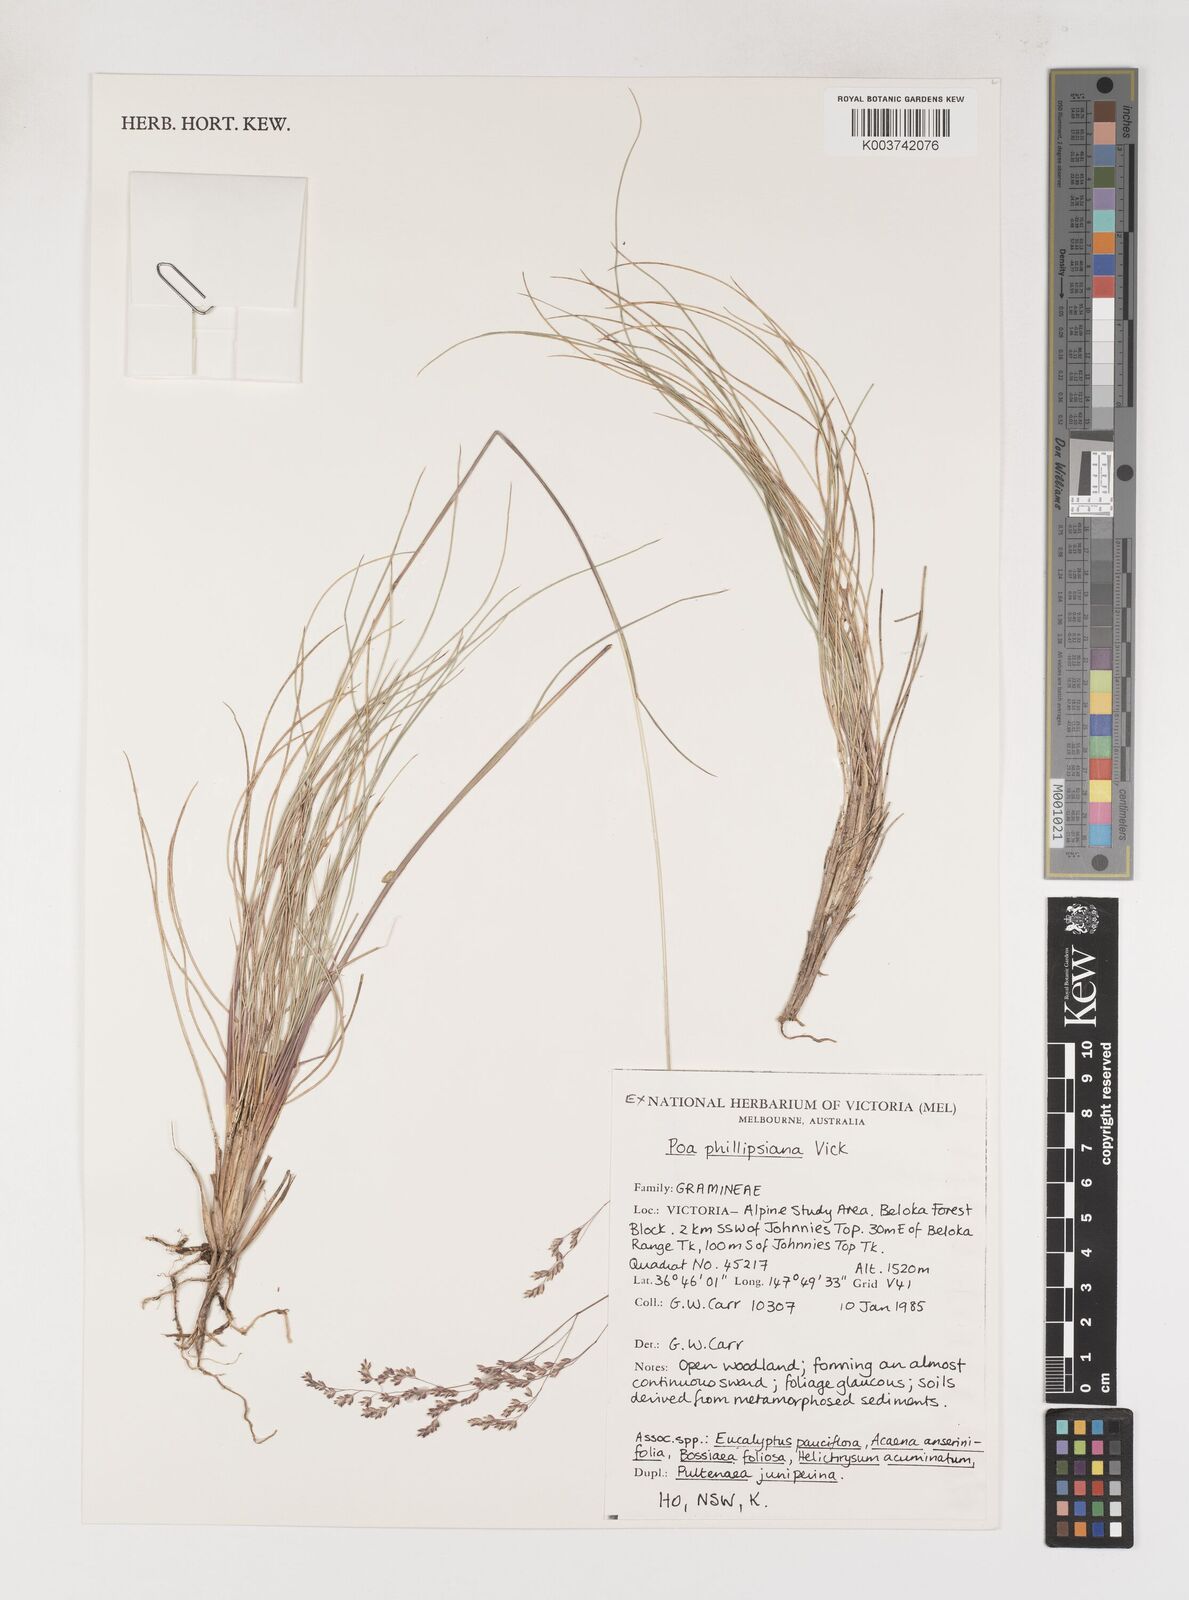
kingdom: Plantae
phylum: Tracheophyta
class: Liliopsida
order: Poales
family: Poaceae
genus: Poa
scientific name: Poa phillipsiana
